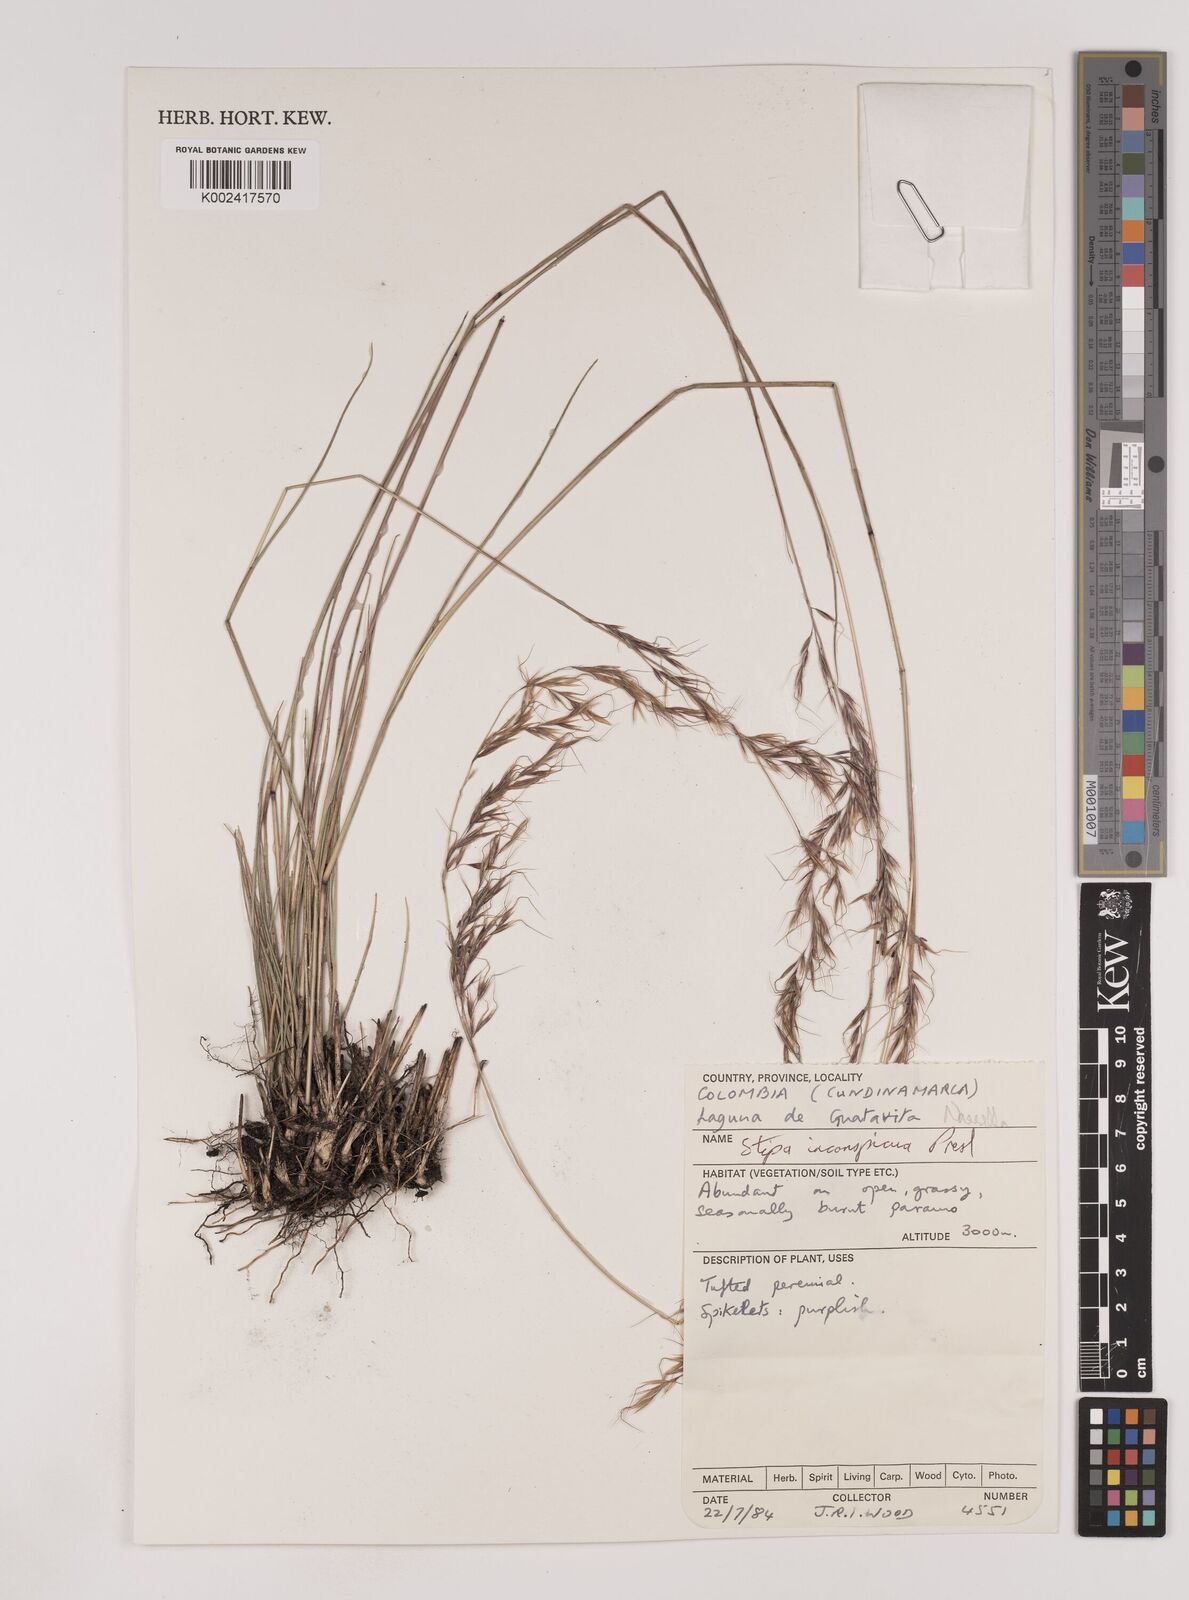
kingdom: Plantae
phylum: Tracheophyta
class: Liliopsida
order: Poales
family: Poaceae
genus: Nassella
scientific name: Nassella
